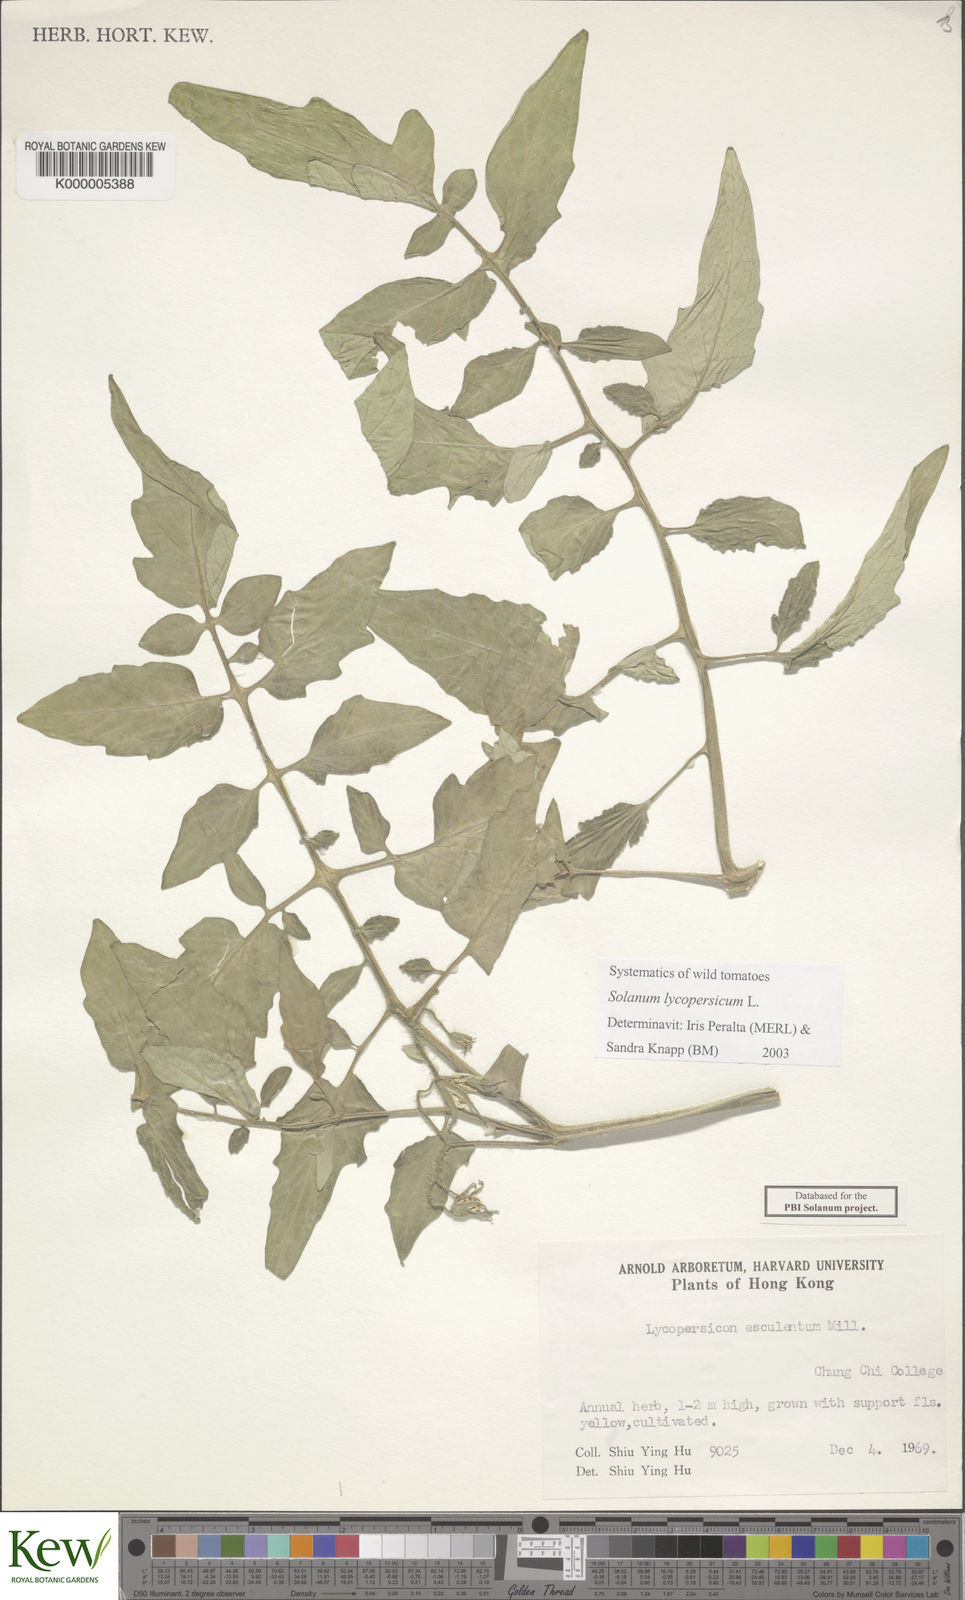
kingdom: Plantae
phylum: Tracheophyta
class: Magnoliopsida
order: Solanales
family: Solanaceae
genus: Solanum
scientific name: Solanum lycopersicum
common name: Garden tomato
